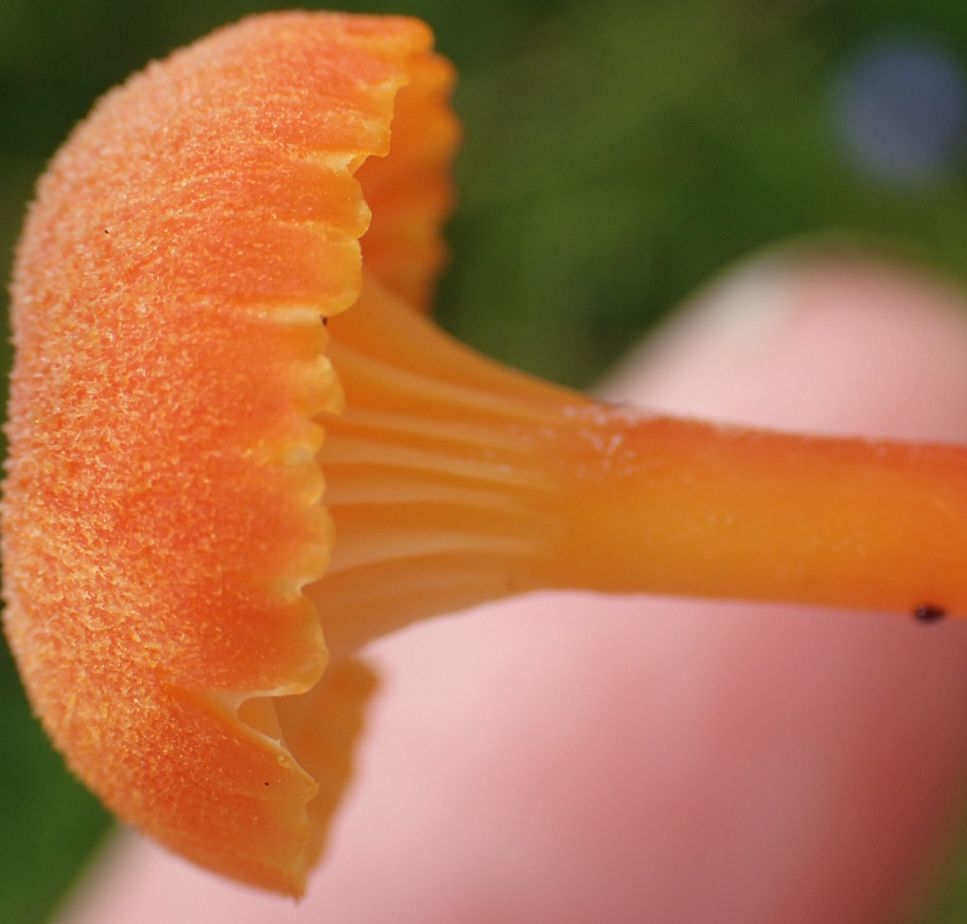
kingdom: Fungi
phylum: Basidiomycota
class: Agaricomycetes
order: Agaricales
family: Hygrophoraceae
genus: Hygrocybe
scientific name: Hygrocybe cantharellus
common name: kantarel-vokshat
